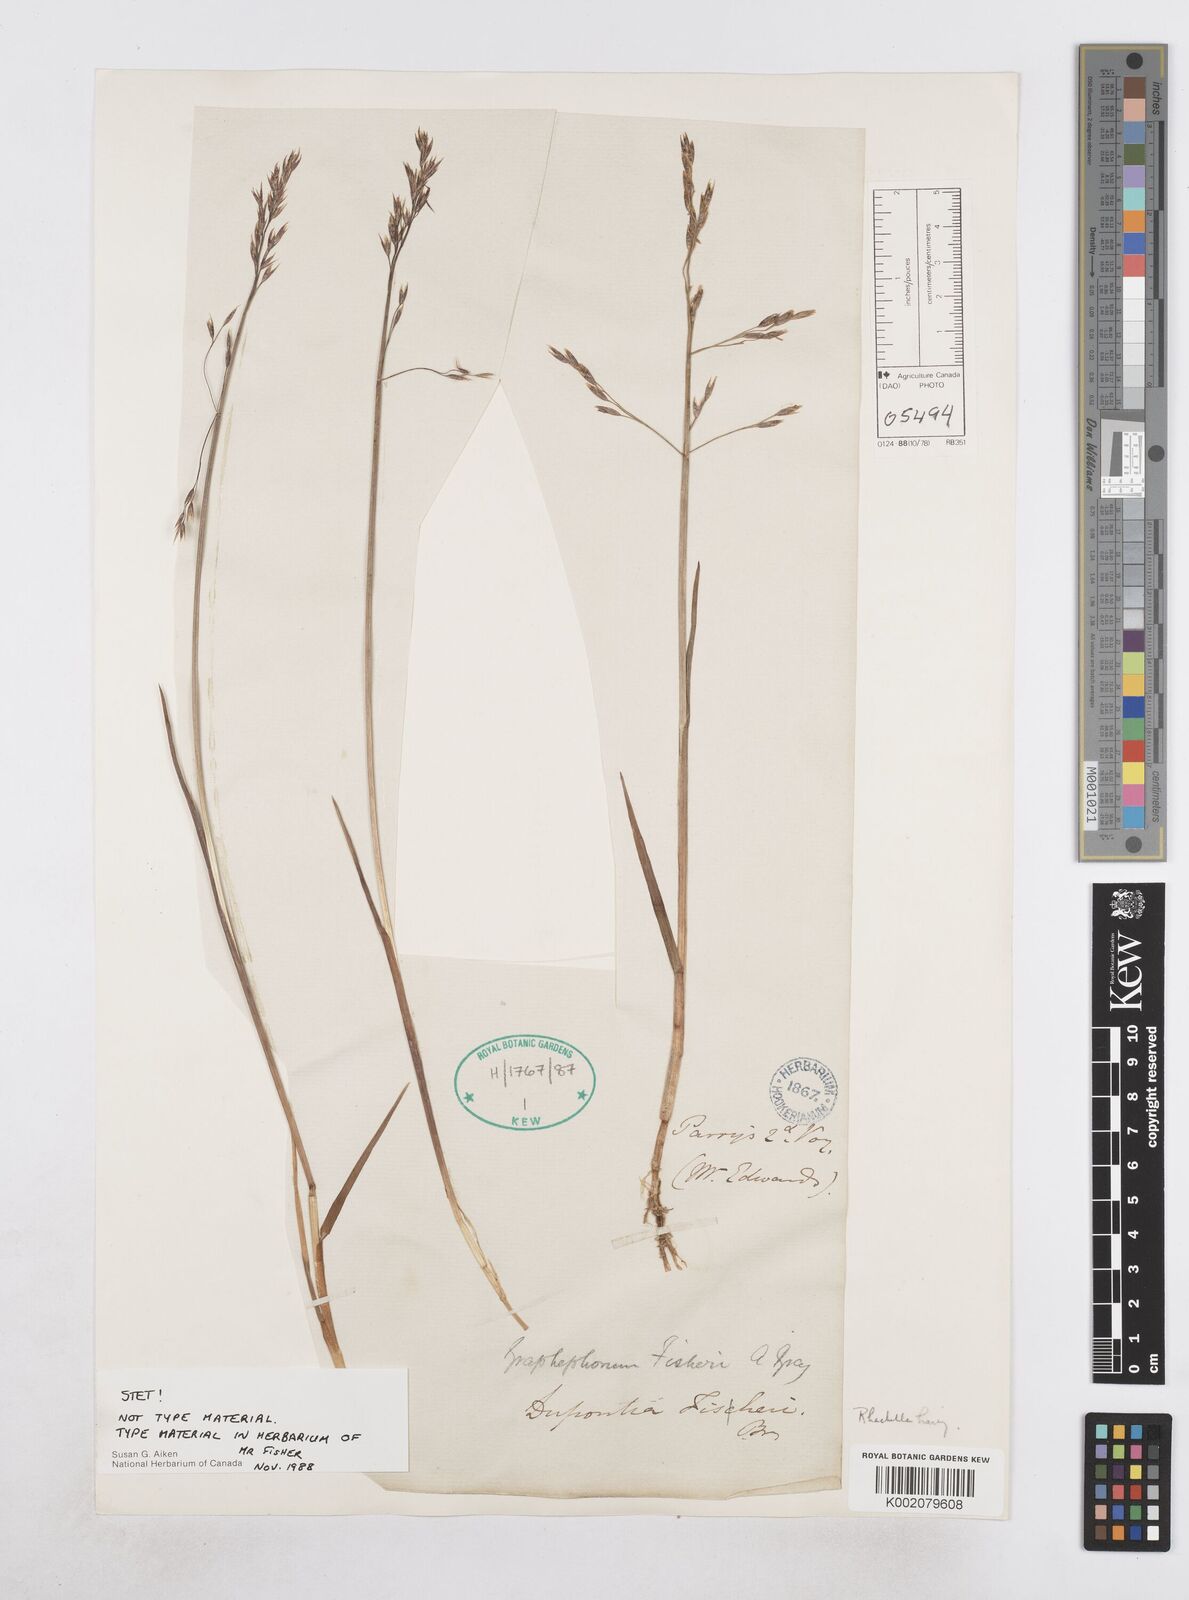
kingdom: Plantae
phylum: Tracheophyta
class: Liliopsida
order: Poales
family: Poaceae
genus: Dupontia
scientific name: Dupontia fisheri
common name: Tundra grass
